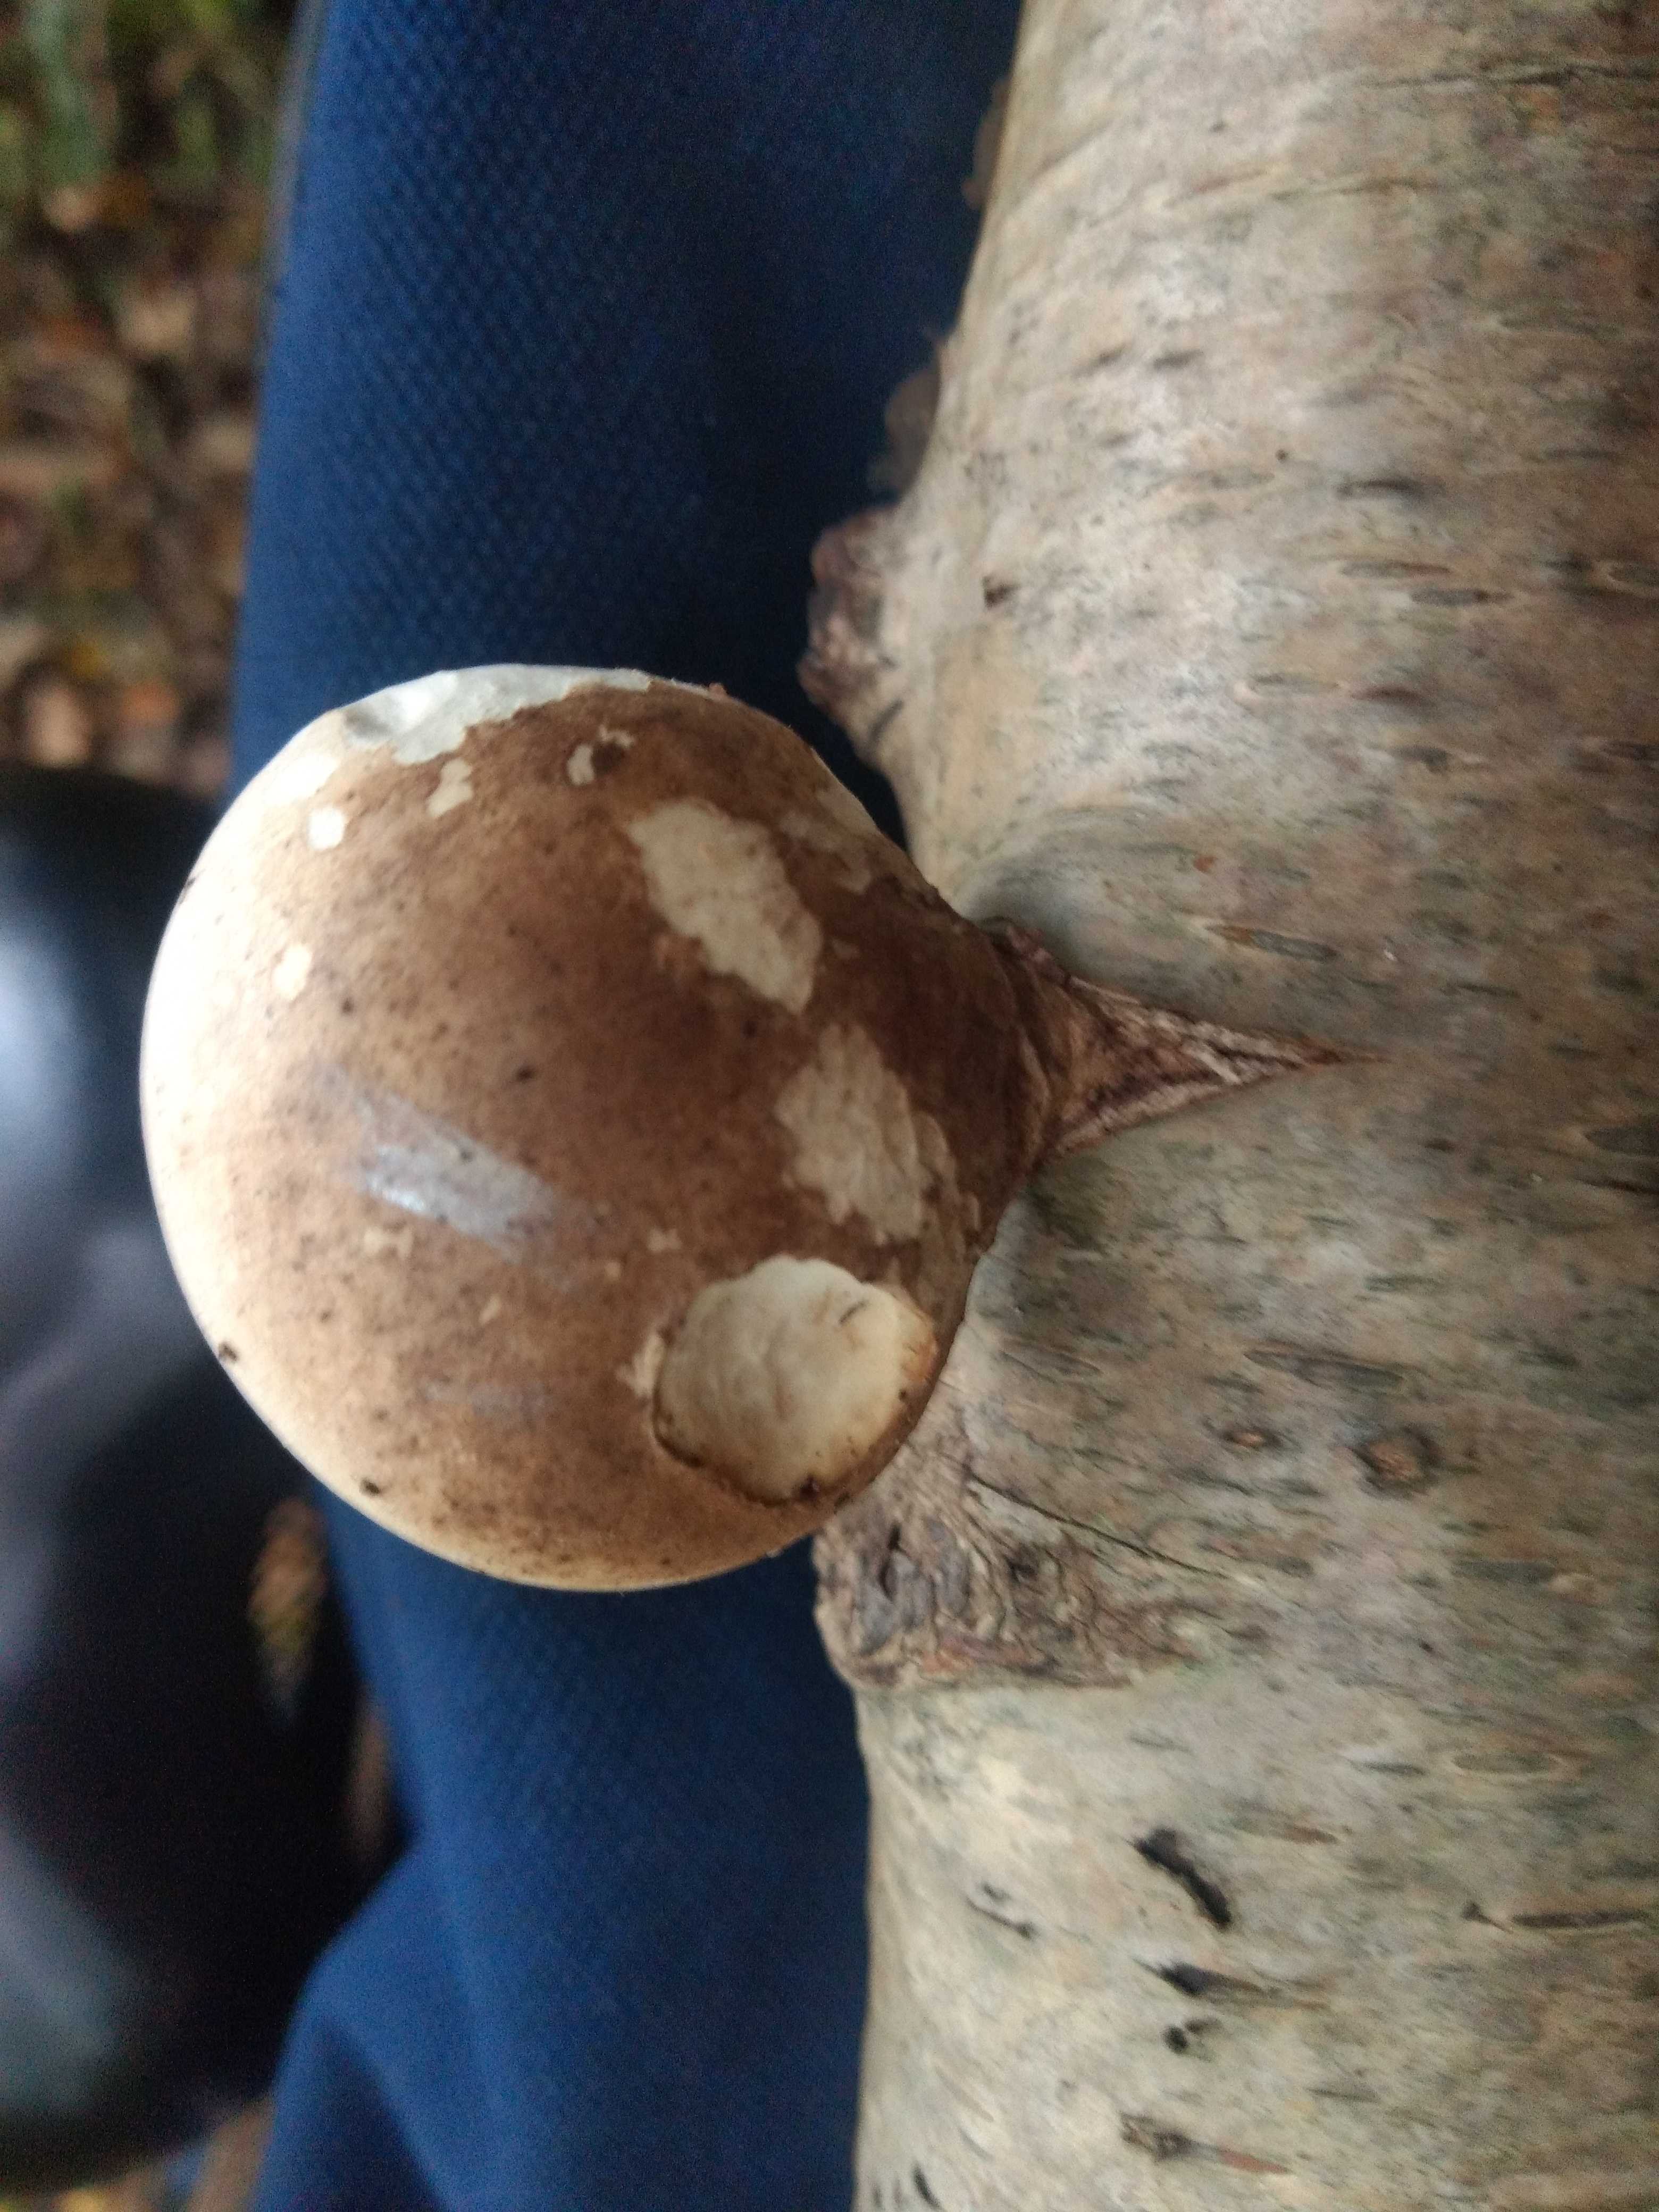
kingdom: Fungi
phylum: Basidiomycota
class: Agaricomycetes
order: Polyporales
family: Fomitopsidaceae
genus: Fomitopsis
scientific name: Fomitopsis betulina
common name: birkeporesvamp
